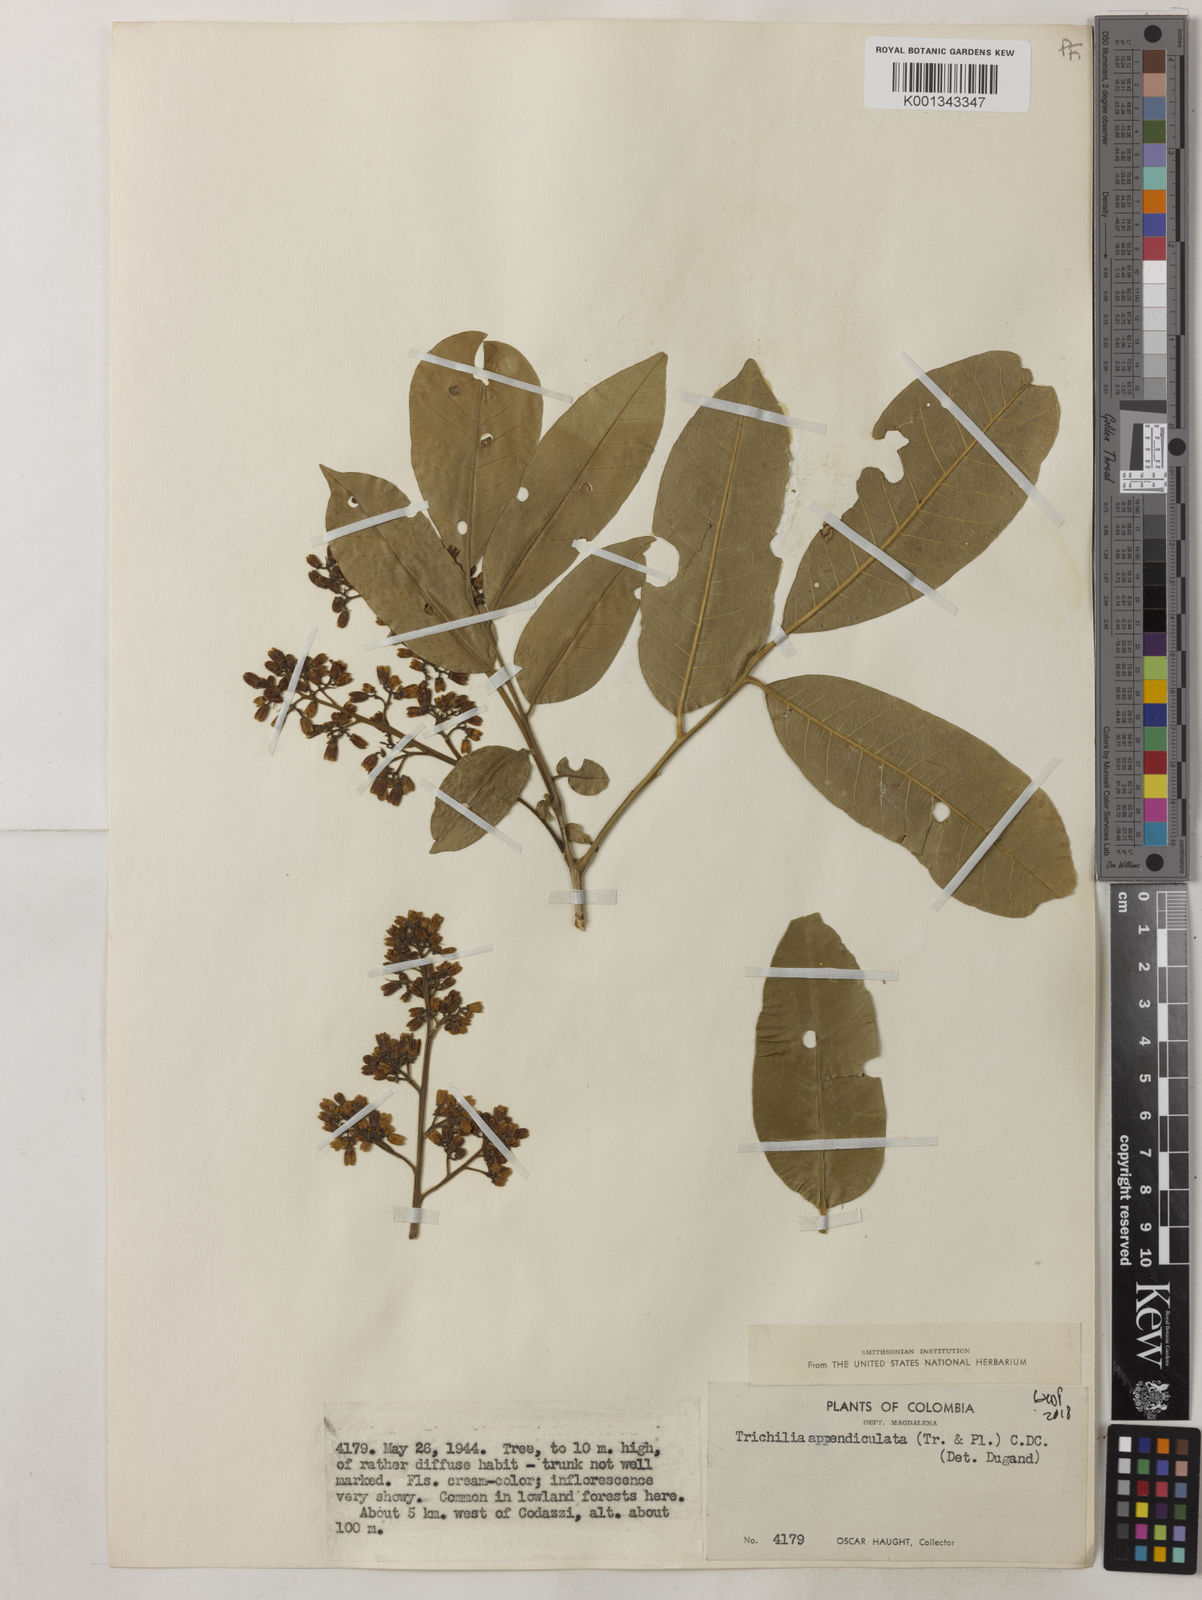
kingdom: Plantae
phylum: Tracheophyta
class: Magnoliopsida
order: Sapindales
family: Meliaceae
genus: Trichilia
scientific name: Trichilia appendiculata
